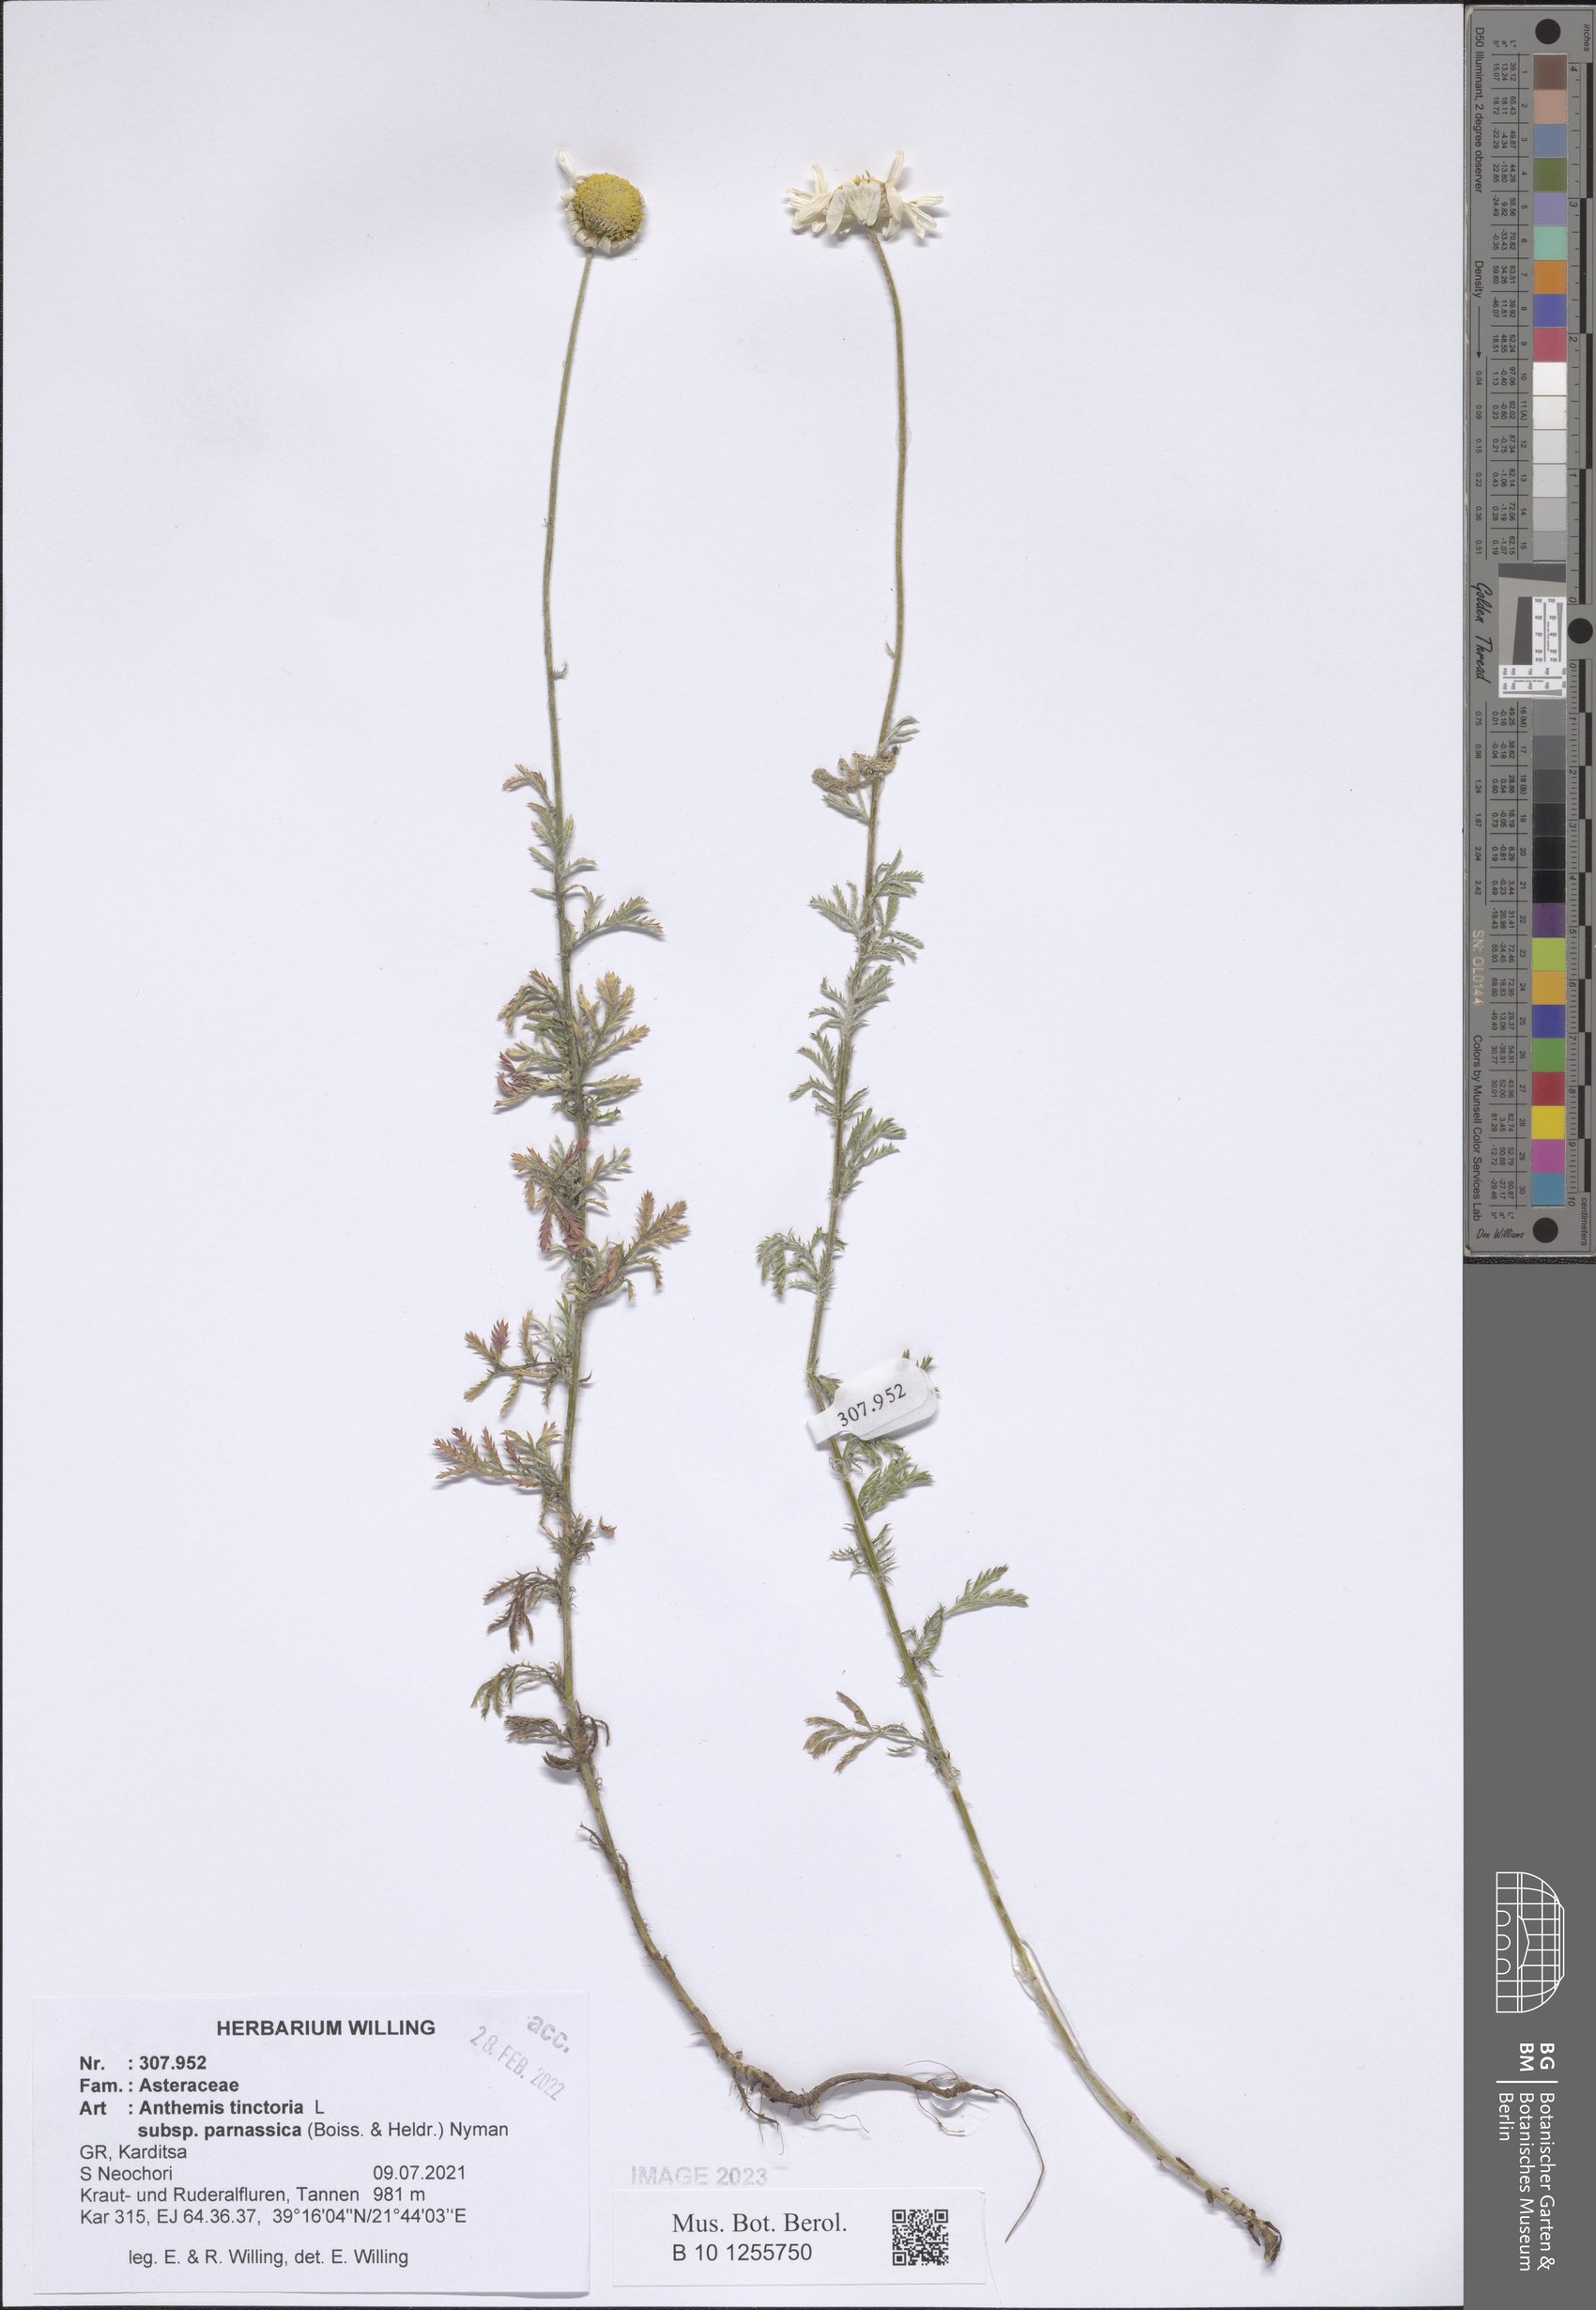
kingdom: Plantae
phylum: Tracheophyta
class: Magnoliopsida
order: Asterales
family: Asteraceae
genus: Cota
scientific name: Cota tinctoria
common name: Golden chamomile
